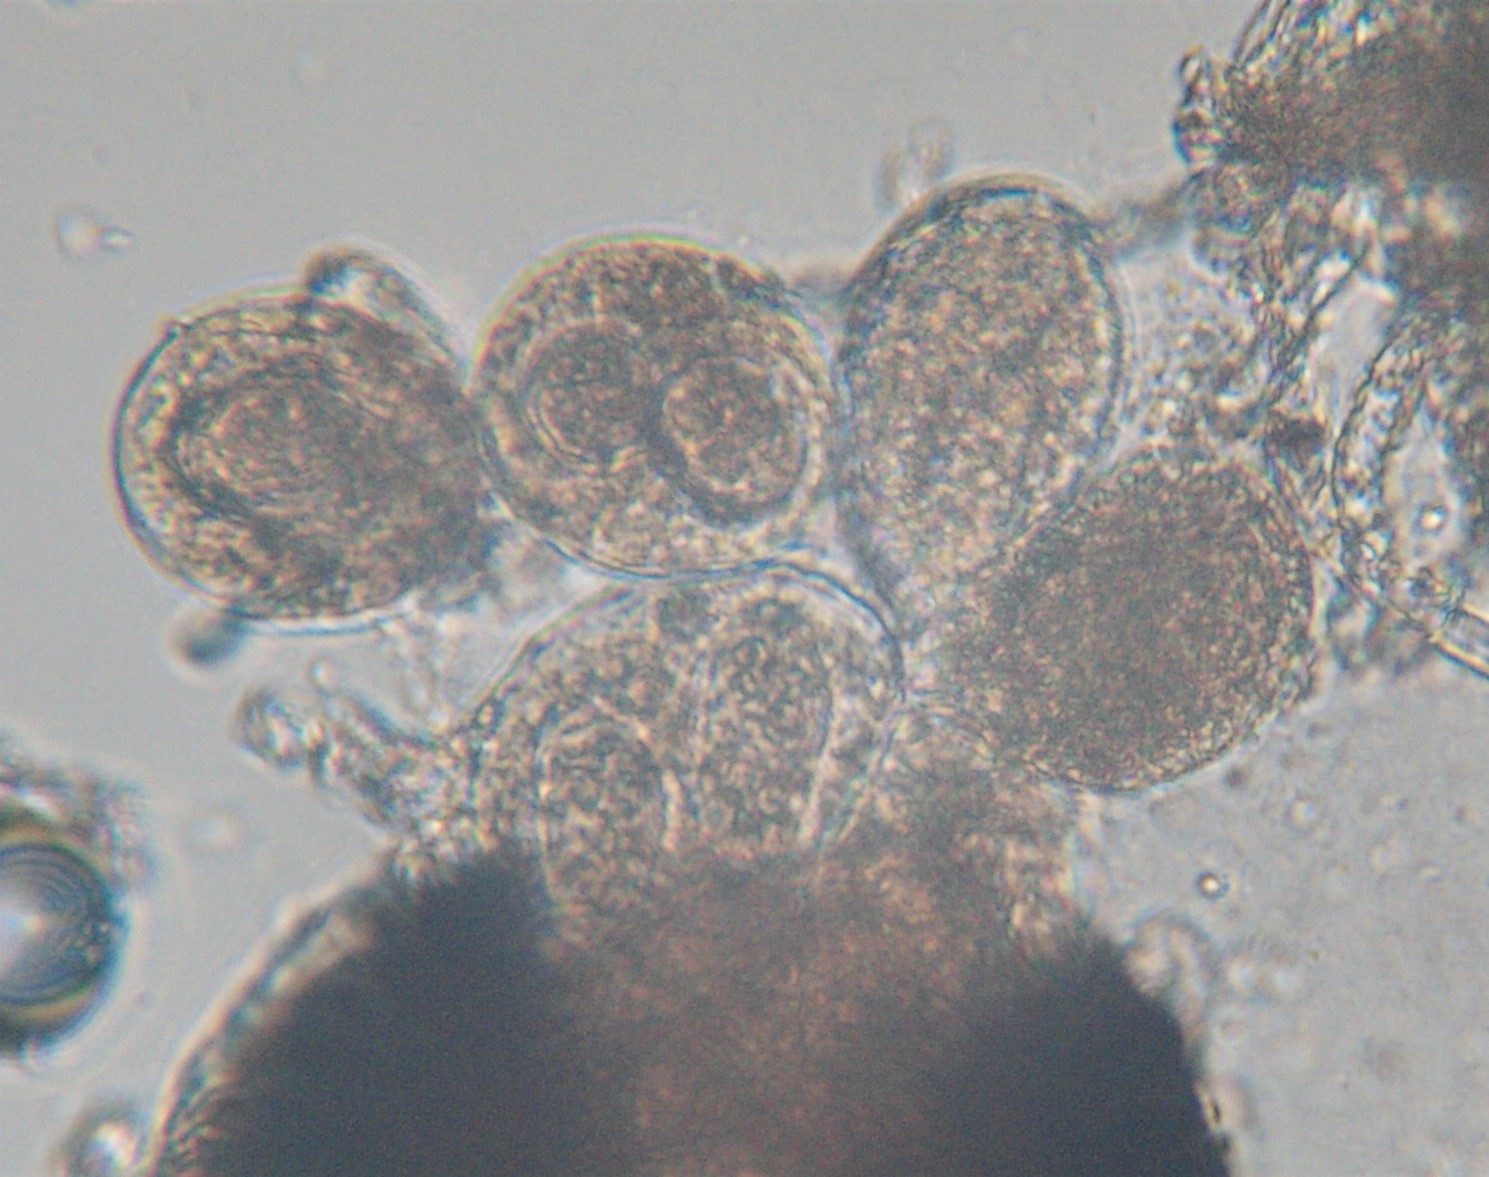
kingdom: Fungi
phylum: Ascomycota
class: Leotiomycetes
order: Helotiales
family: Erysiphaceae
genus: Golovinomyces
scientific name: Golovinomyces sordidus
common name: Plantain mildew
